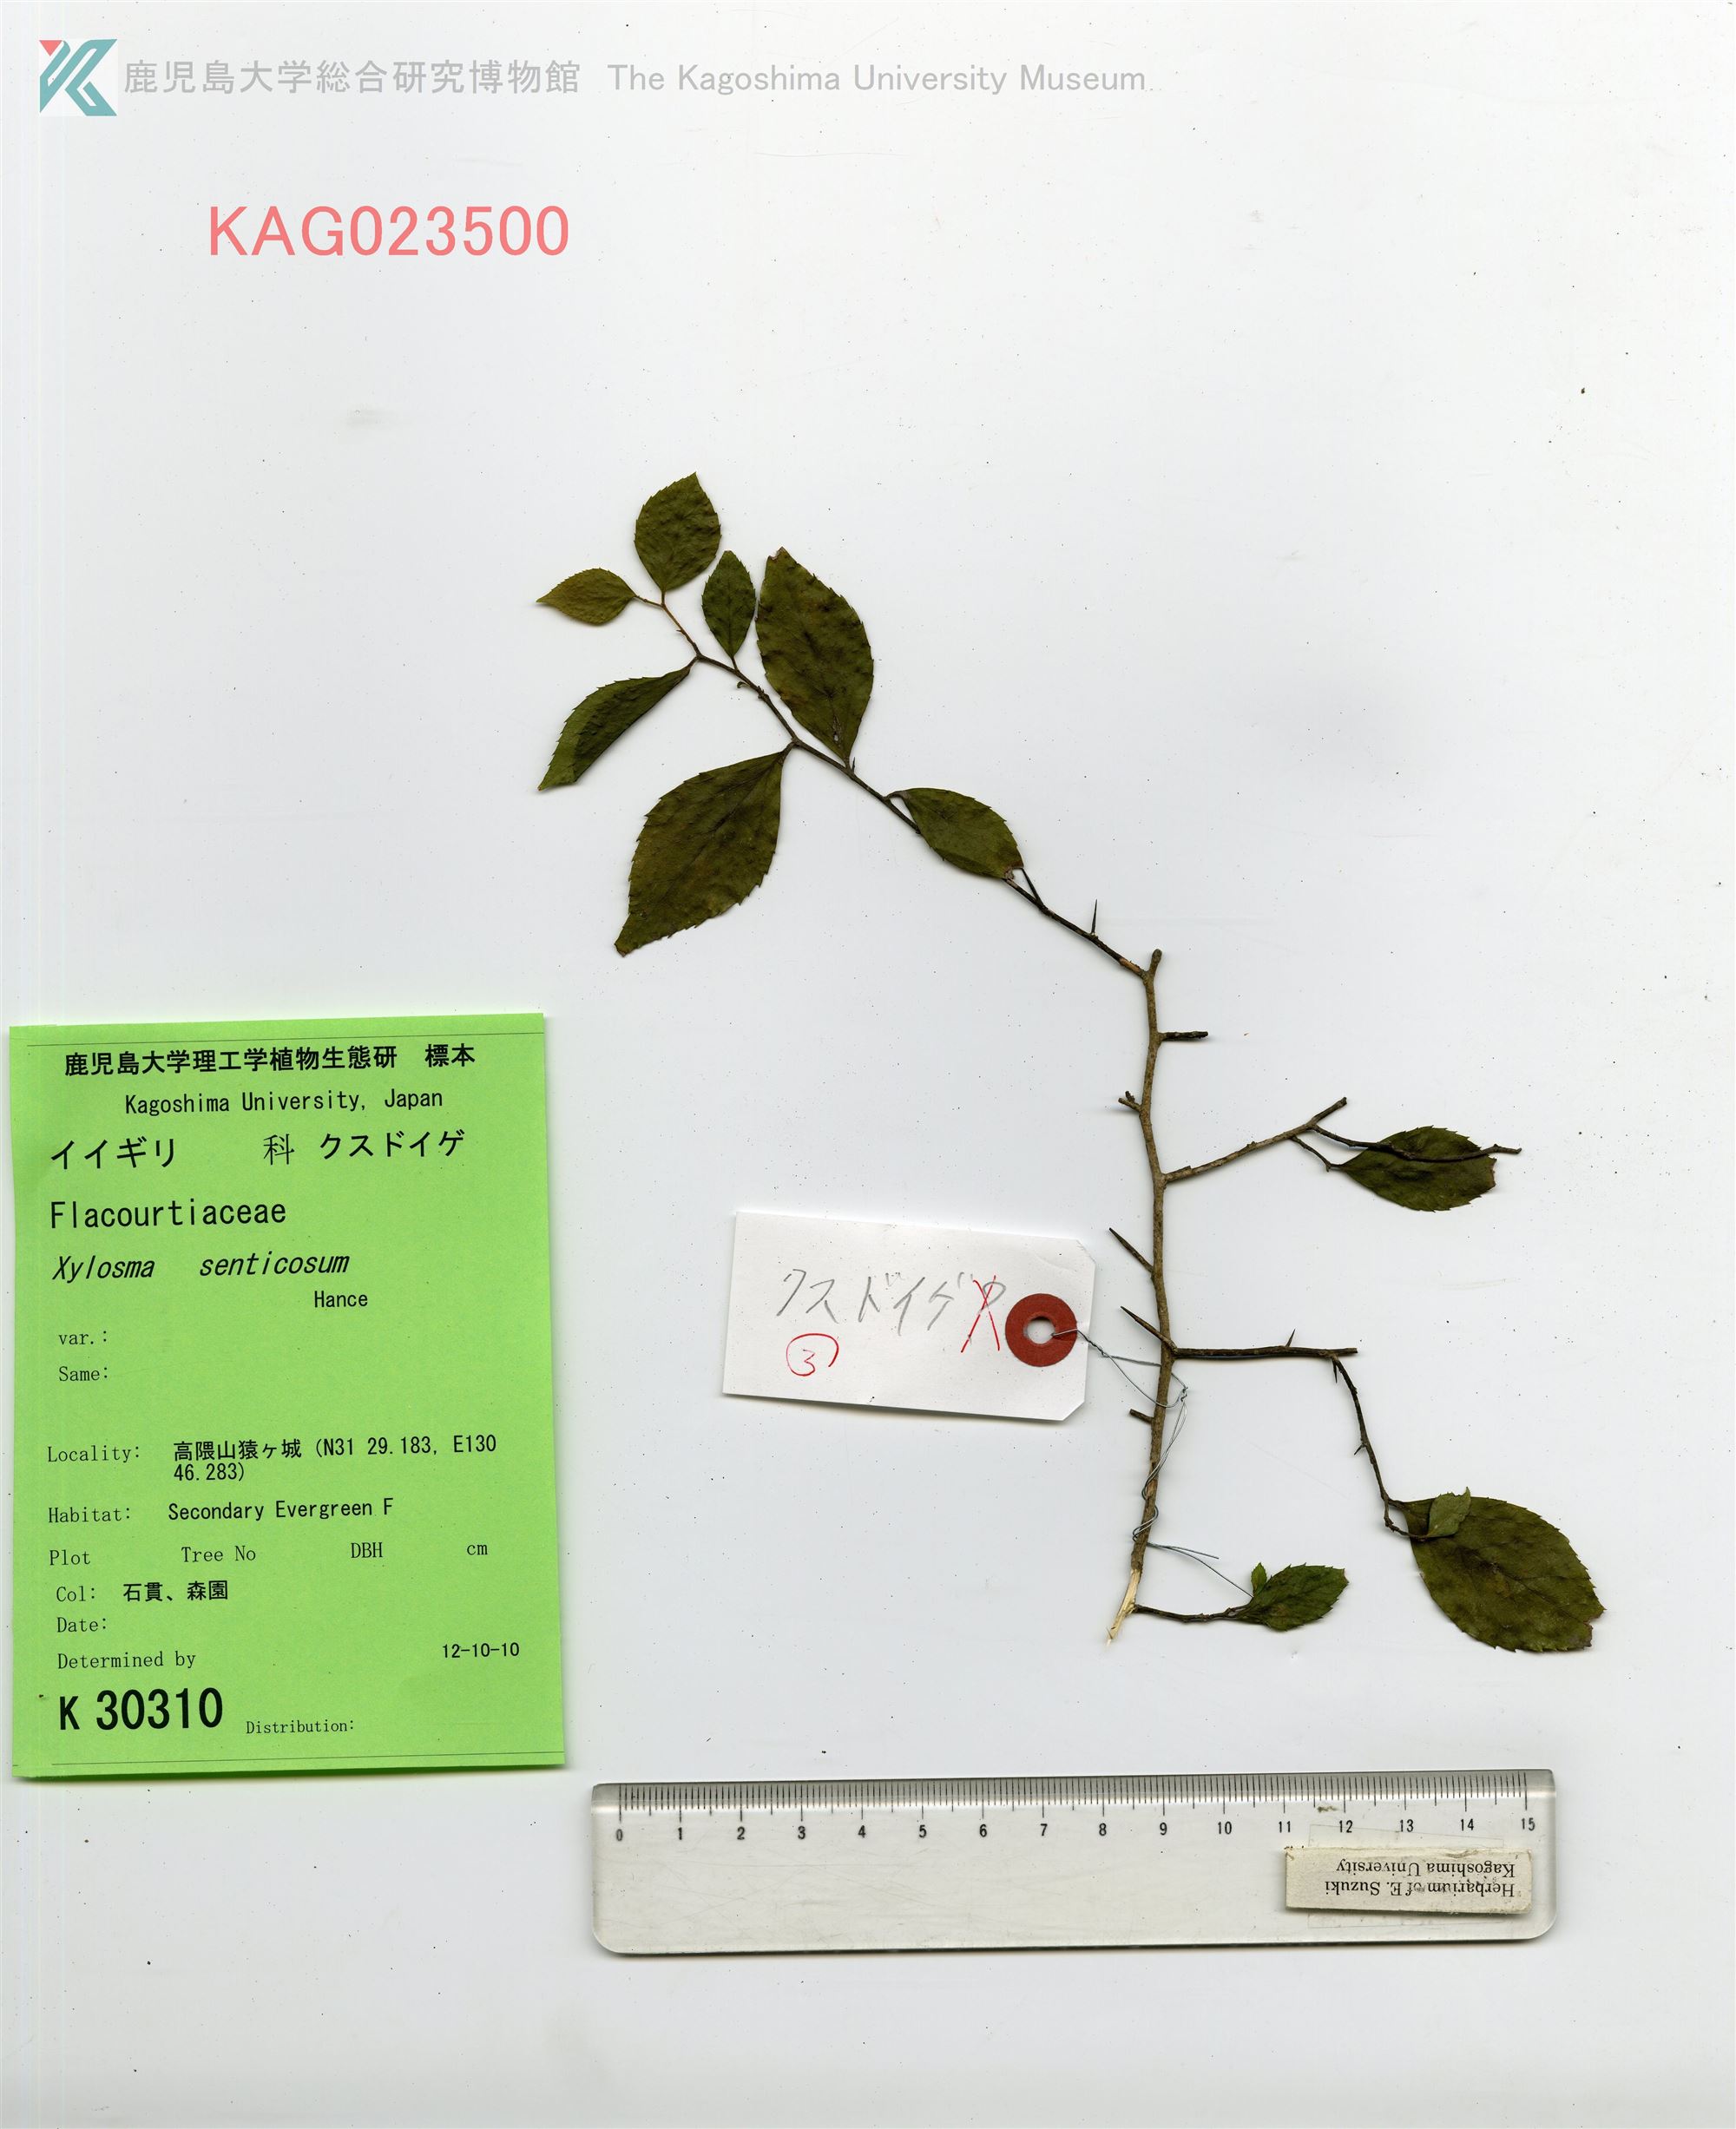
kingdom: Plantae
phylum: Tracheophyta
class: Magnoliopsida
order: Malpighiales
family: Salicaceae
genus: Xylosma
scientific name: Xylosma racemosum
